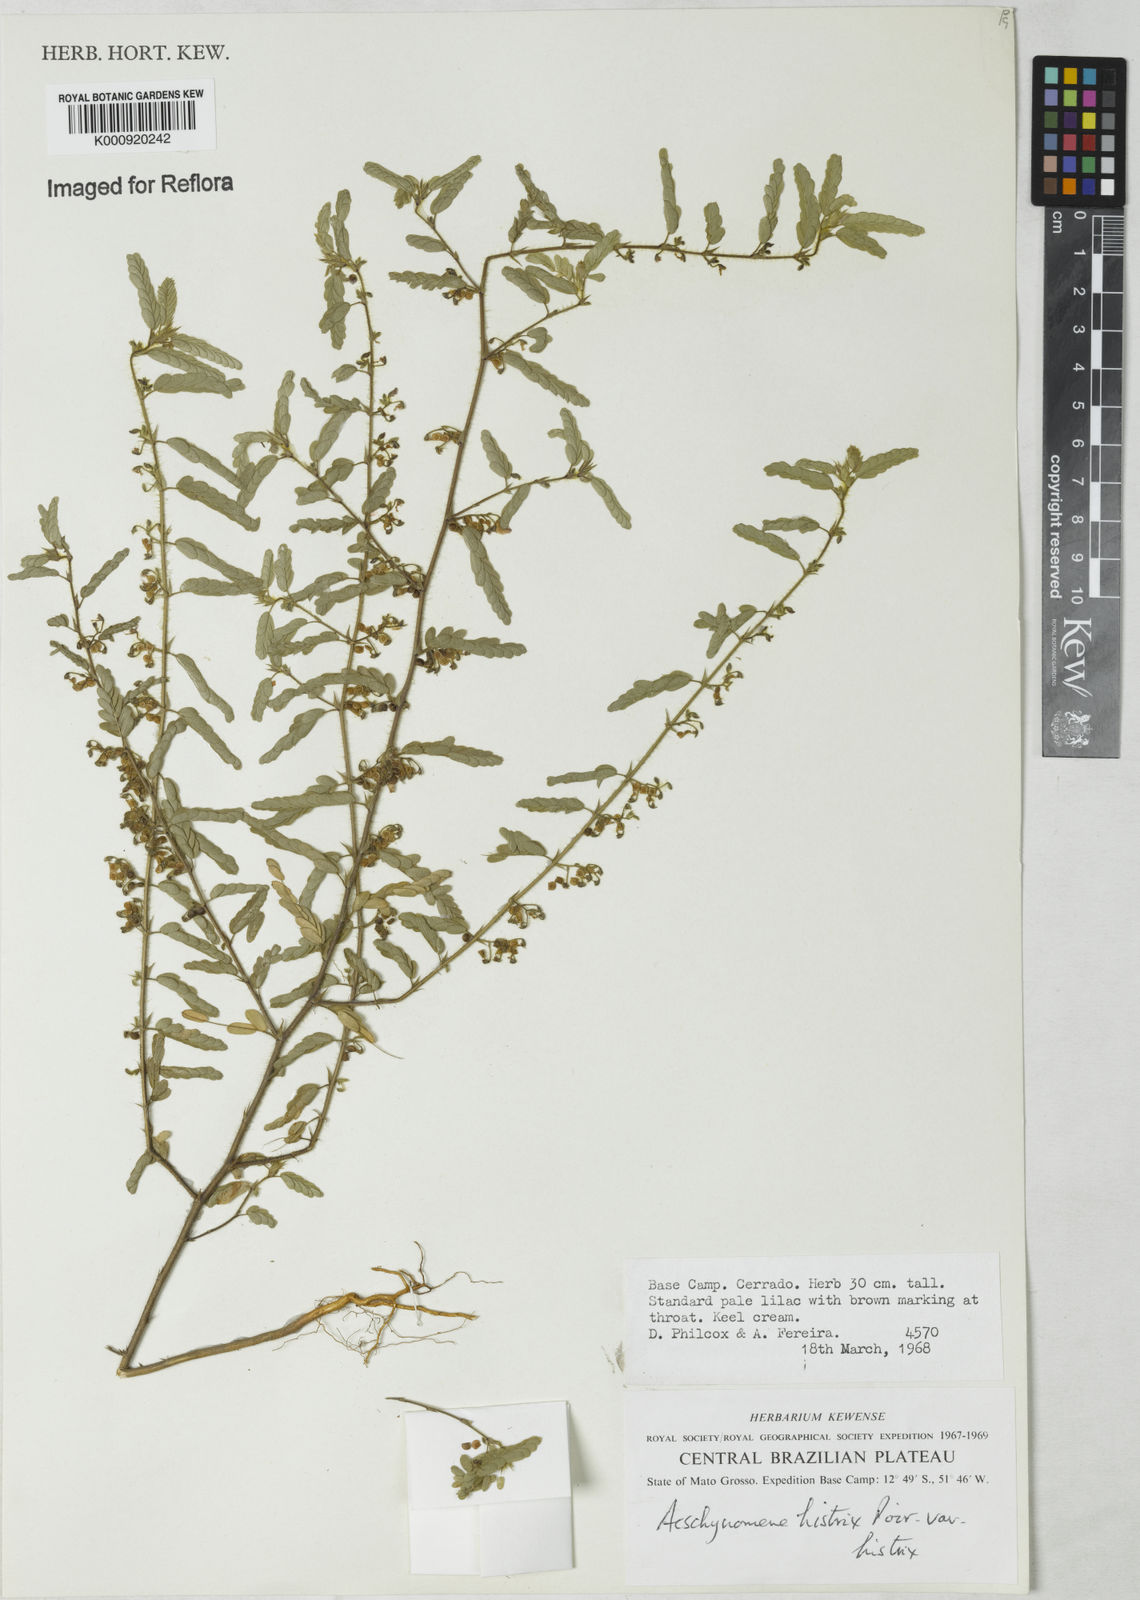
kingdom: Plantae
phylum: Tracheophyta
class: Magnoliopsida
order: Fabales
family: Fabaceae
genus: Ctenodon
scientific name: Ctenodon histrix
